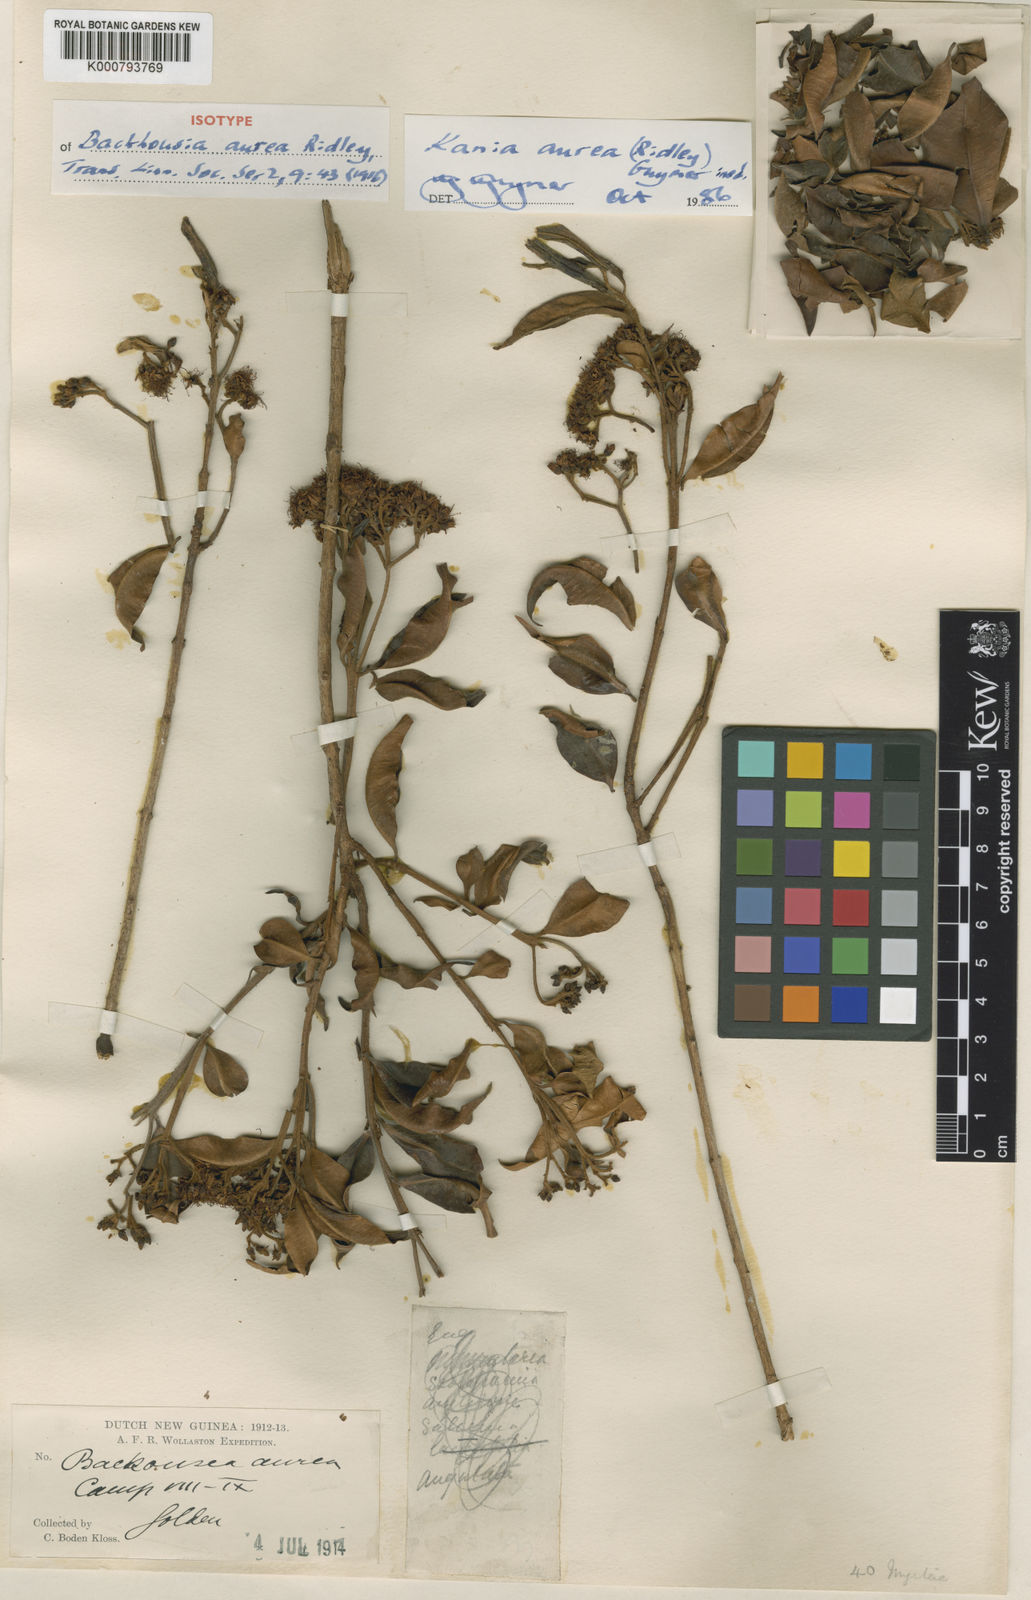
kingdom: Plantae
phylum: Tracheophyta
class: Magnoliopsida
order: Myrtales
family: Myrtaceae
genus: Kania
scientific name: Kania
